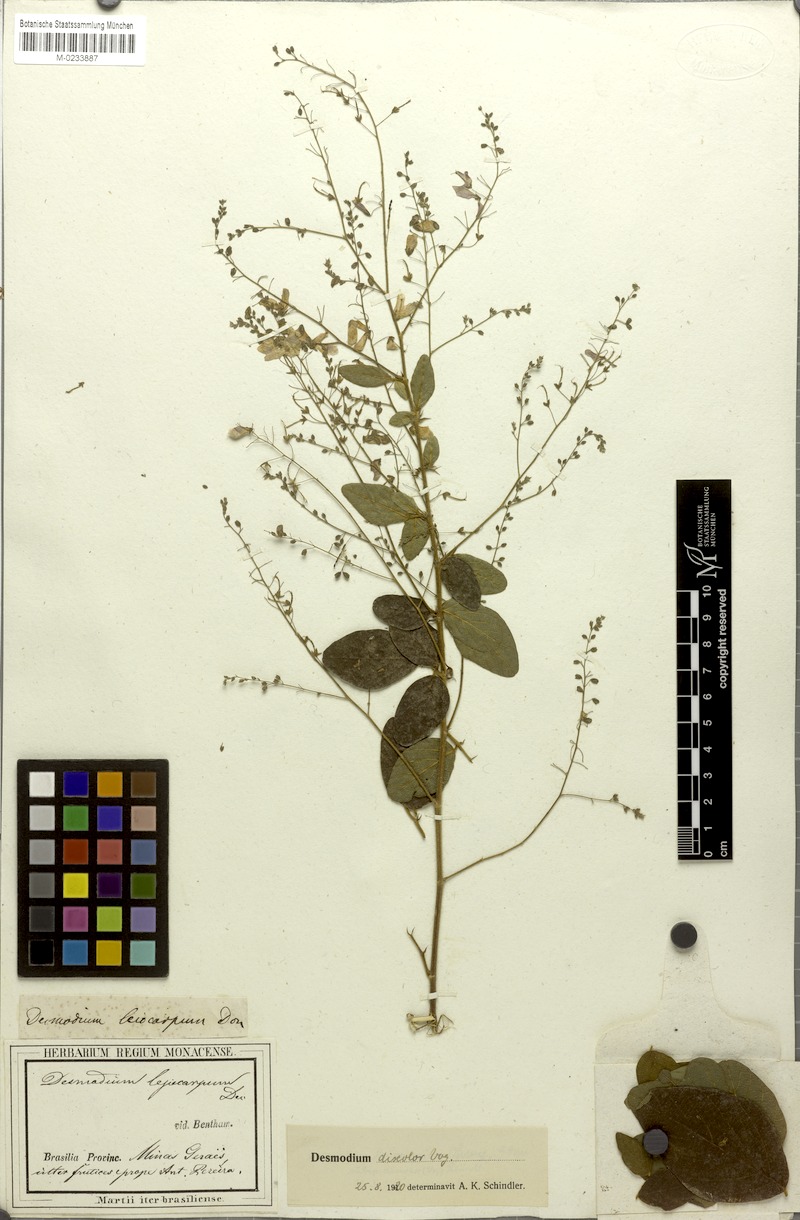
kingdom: Plantae
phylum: Tracheophyta
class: Magnoliopsida
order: Fabales
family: Fabaceae
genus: Desmodium
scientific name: Desmodium subsecundum
